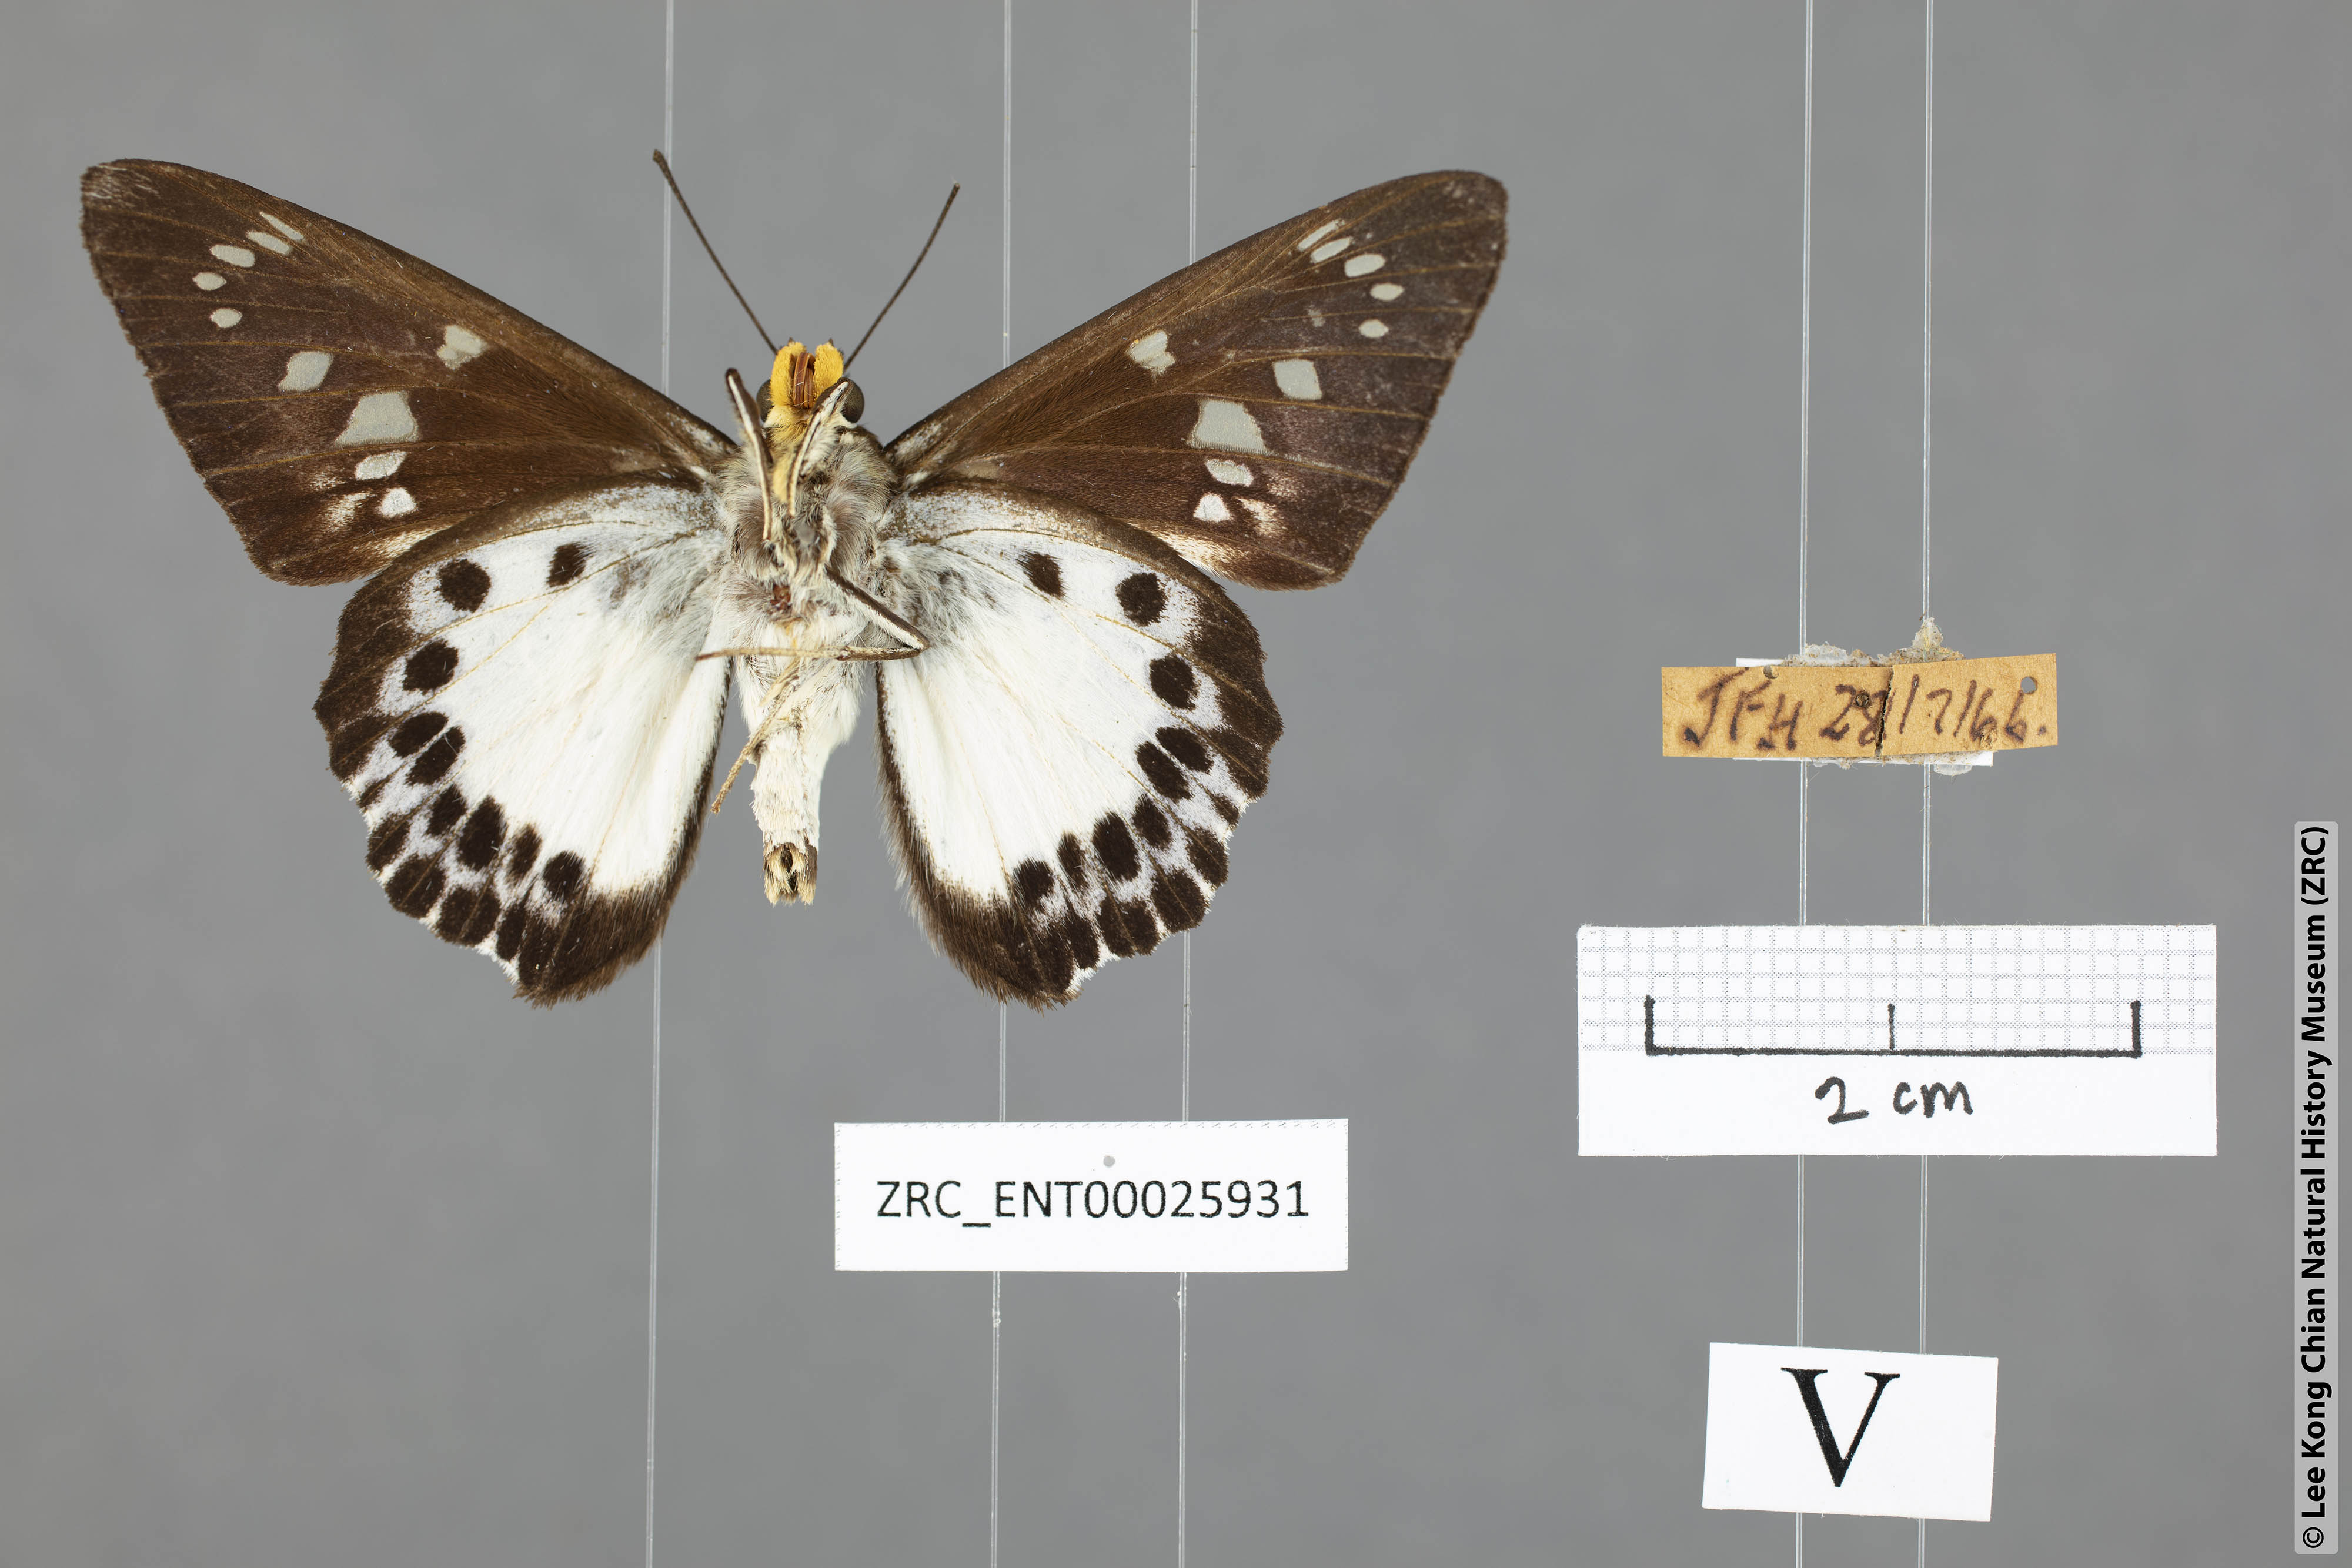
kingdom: Animalia
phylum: Arthropoda
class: Insecta
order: Lepidoptera
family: Hesperiidae
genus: Satarupa
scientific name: Satarupa gopala
